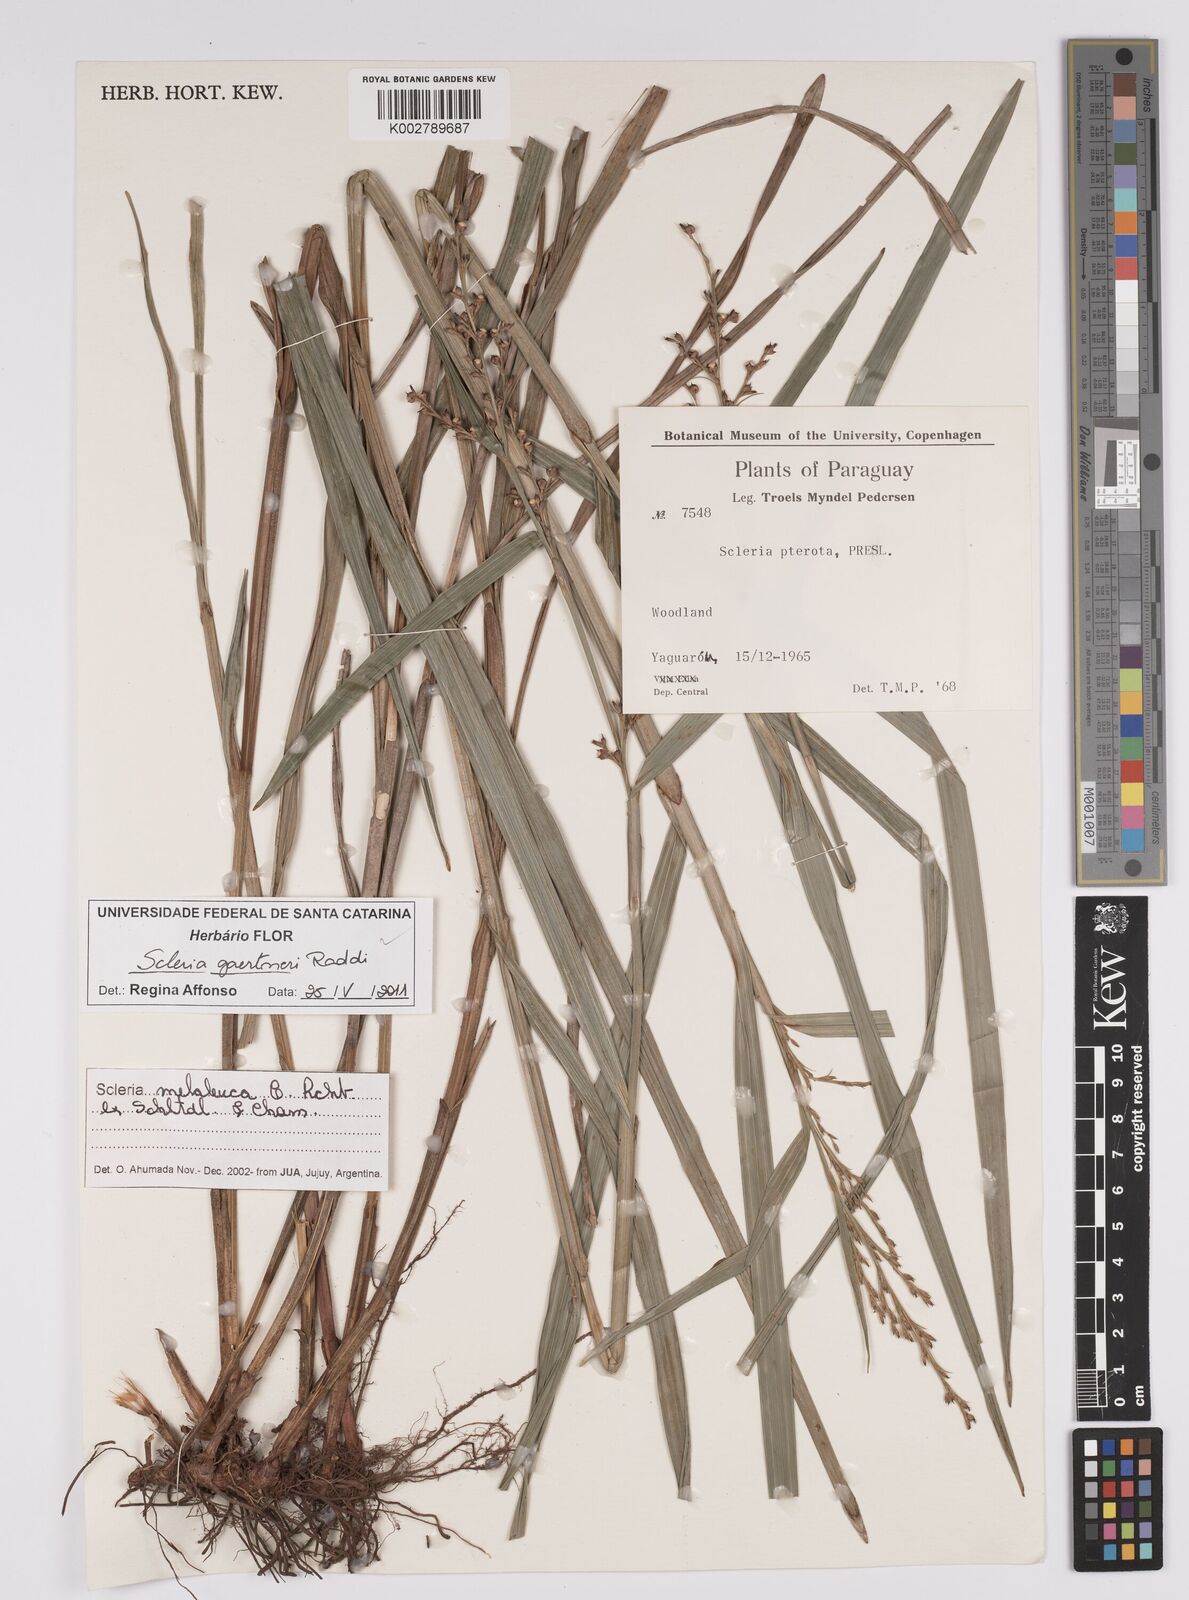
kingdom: Plantae
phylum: Tracheophyta
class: Liliopsida
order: Poales
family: Cyperaceae
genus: Scleria
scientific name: Scleria gaertneri
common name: Cortadera blanca
